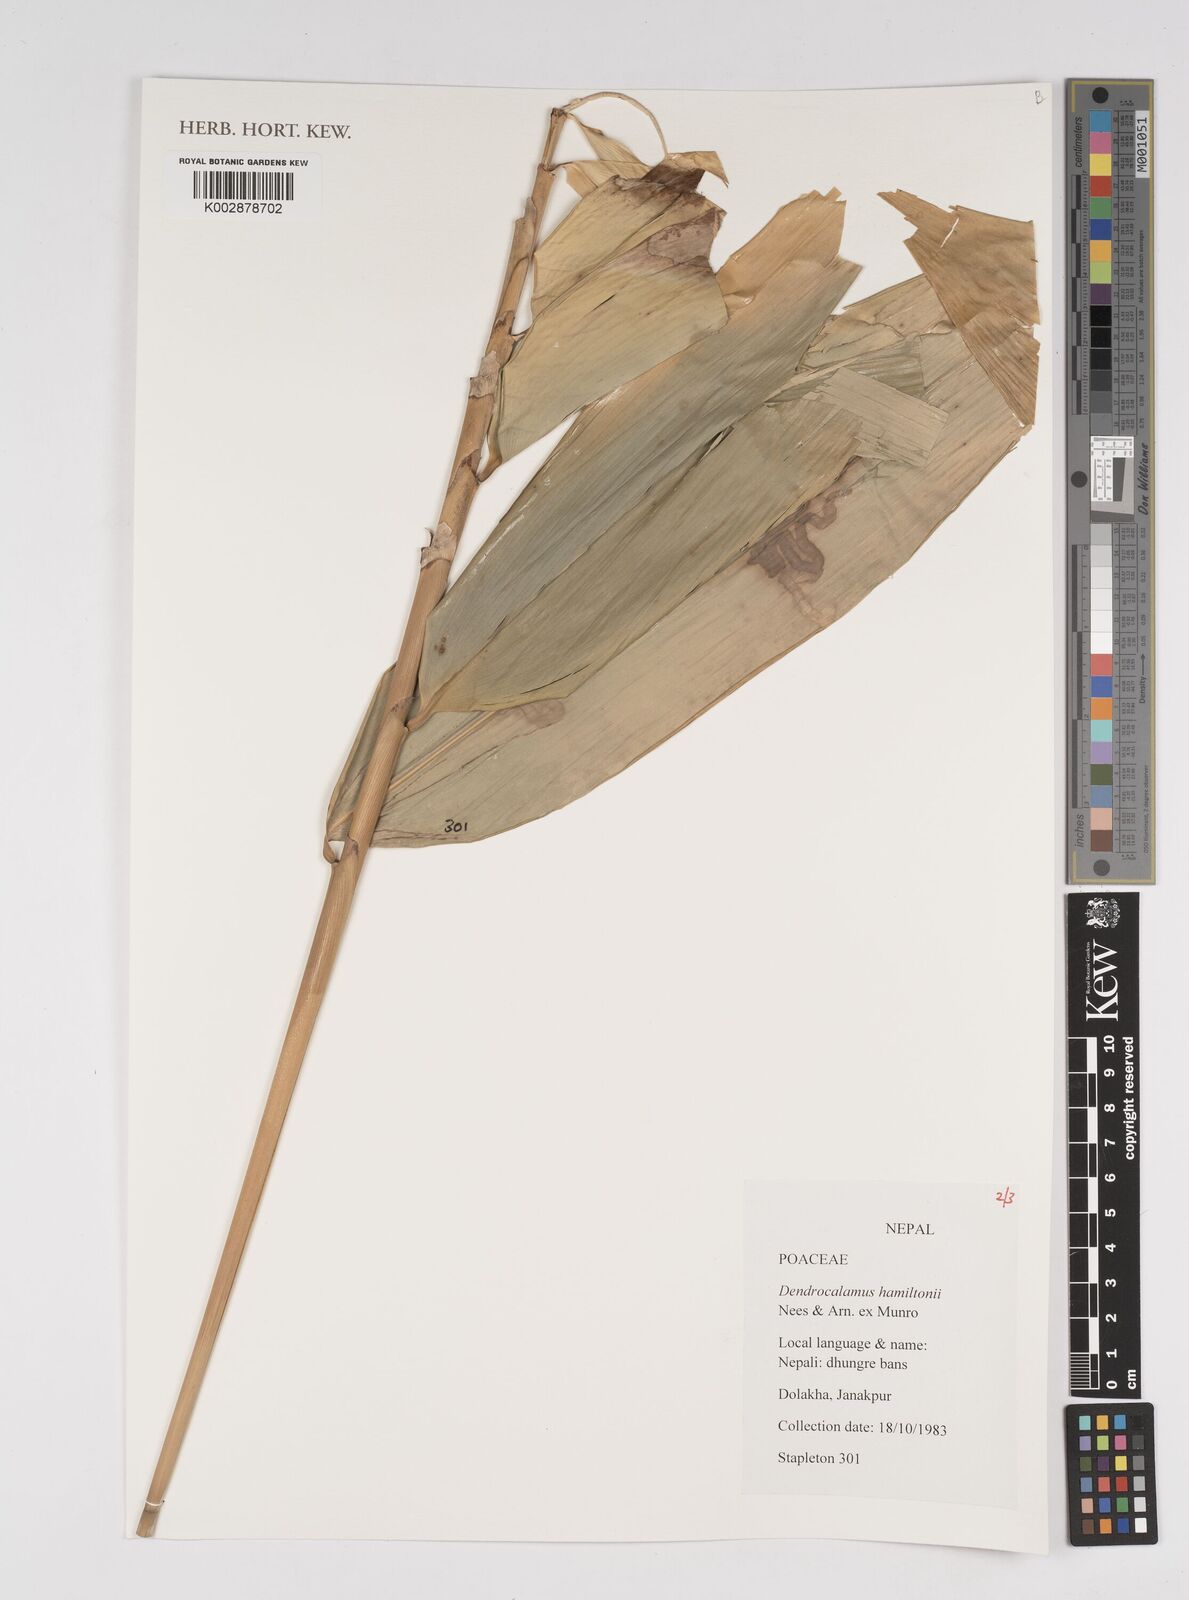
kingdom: Plantae
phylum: Tracheophyta
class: Liliopsida
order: Poales
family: Poaceae
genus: Dendrocalamus
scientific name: Dendrocalamus hamiltonii
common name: Tama bamboo
